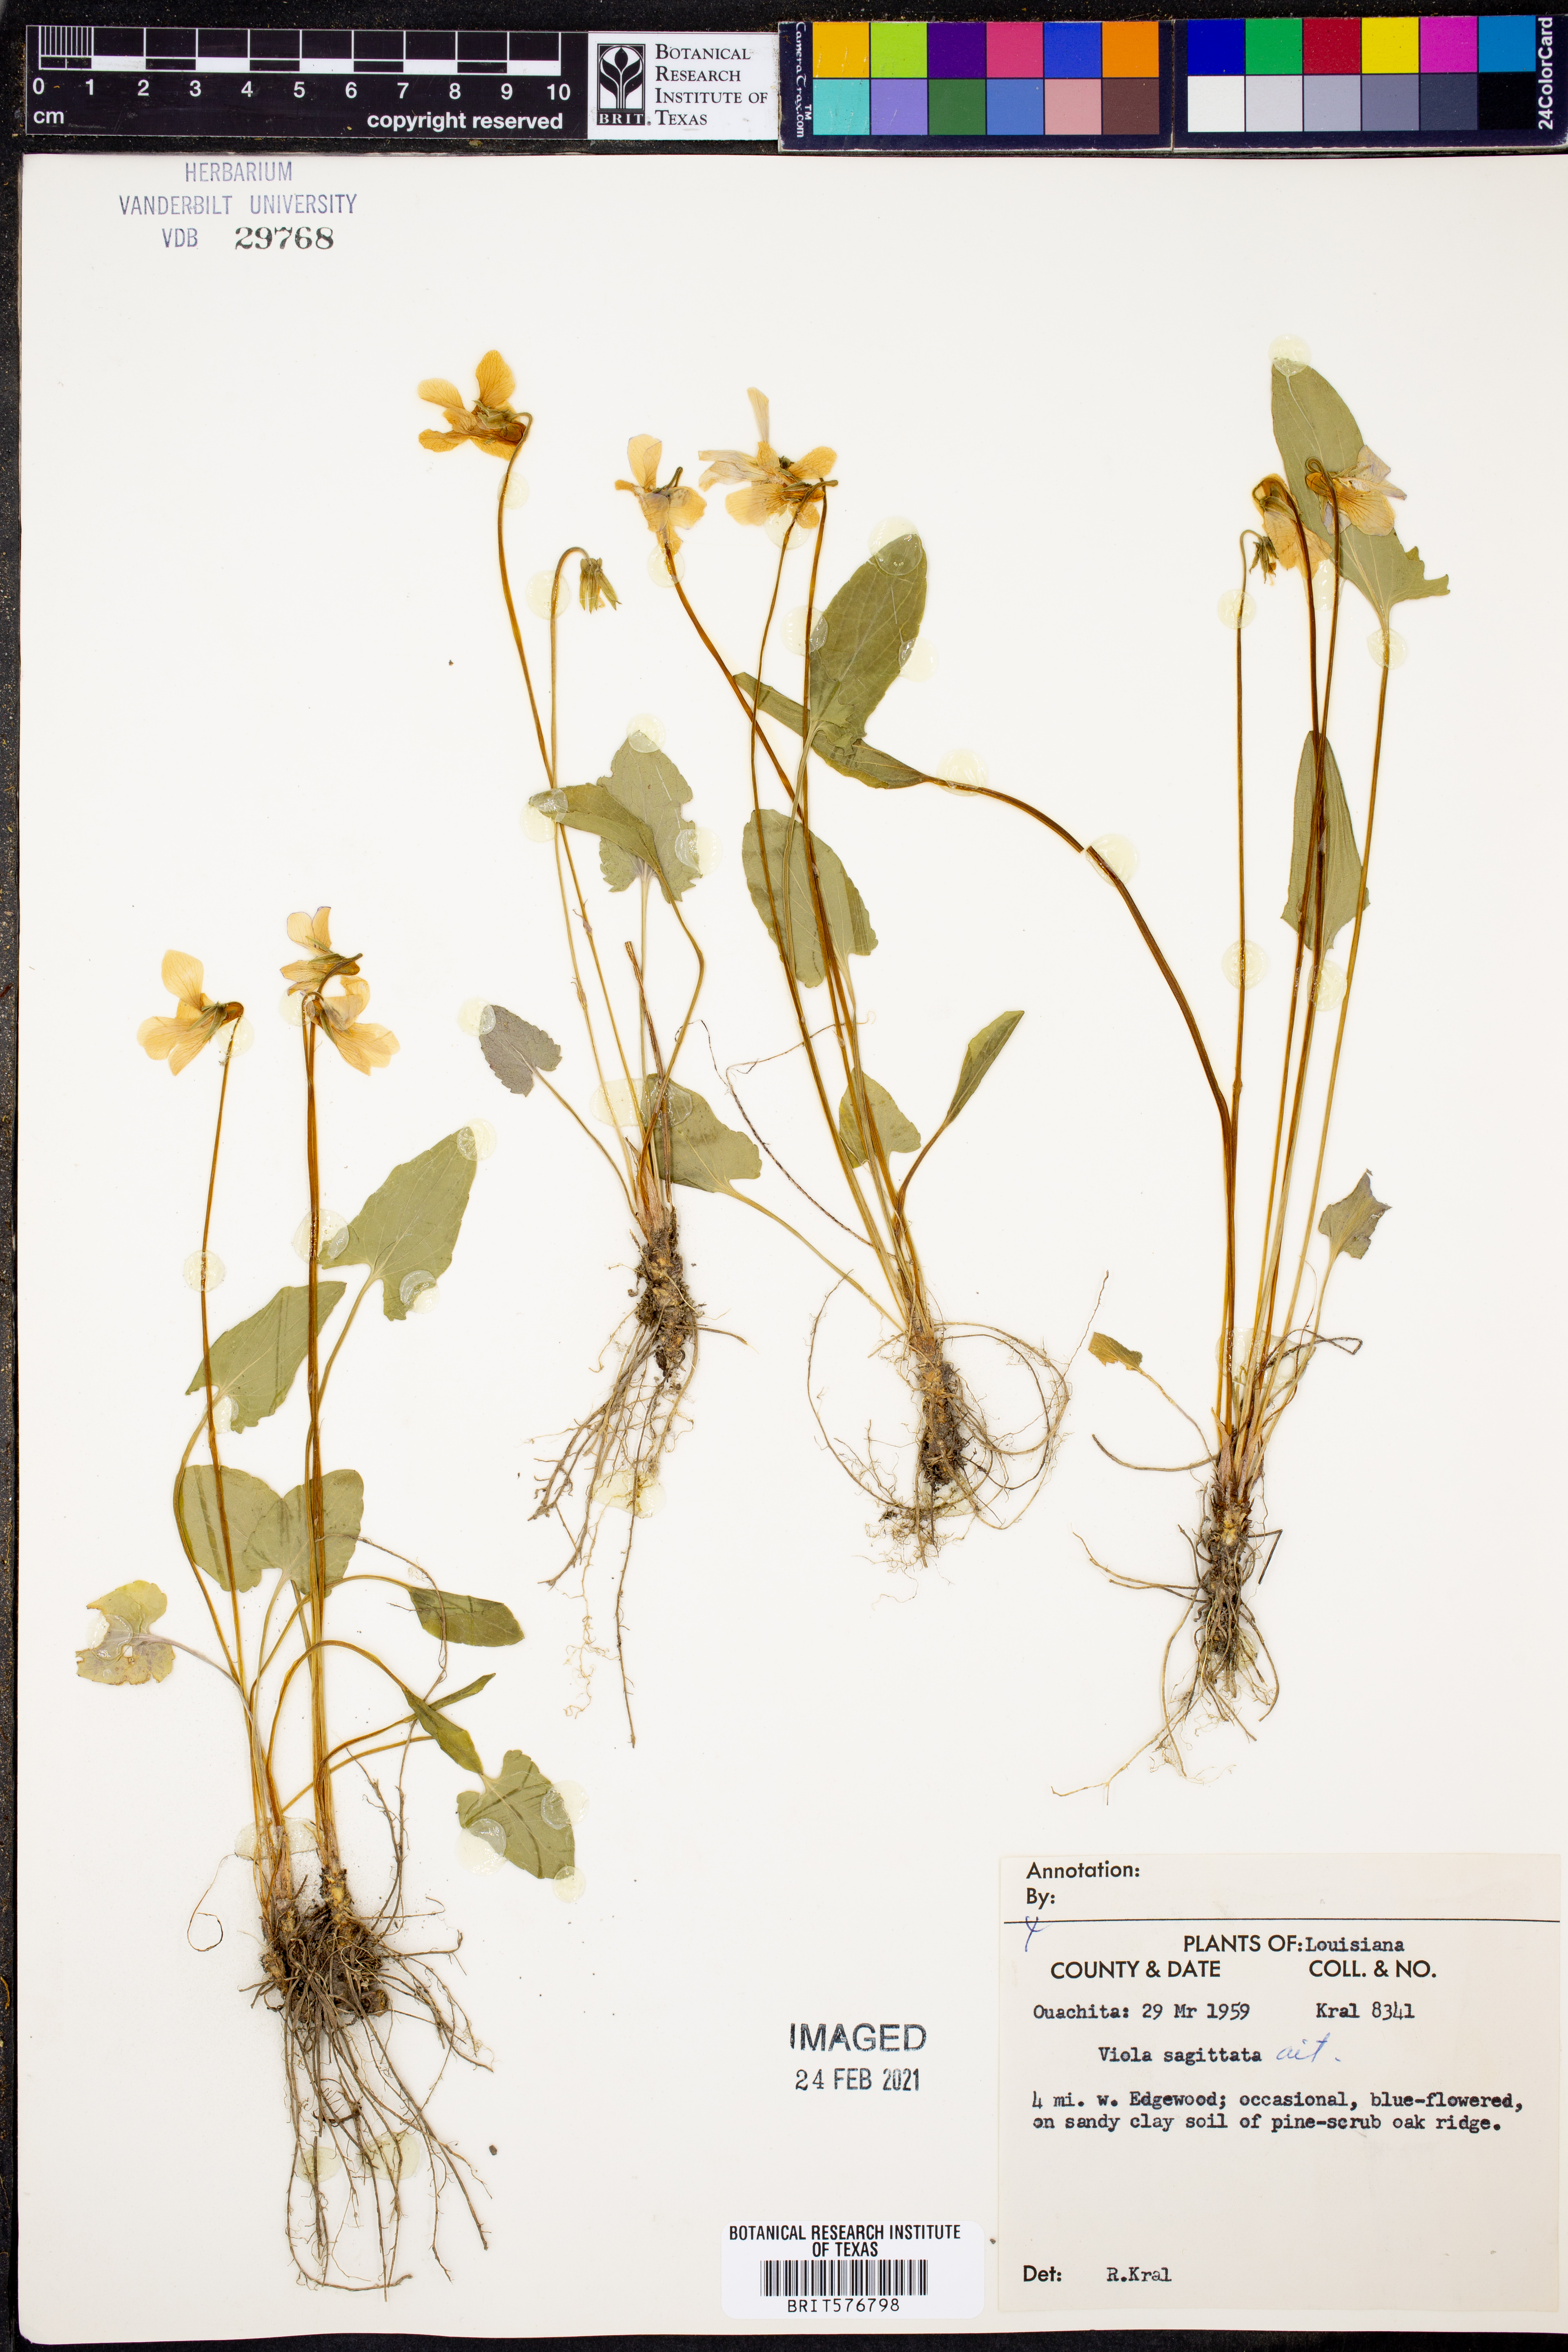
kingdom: Plantae
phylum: Tracheophyta
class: Magnoliopsida
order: Malpighiales
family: Violaceae
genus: Viola
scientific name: Viola sagittata
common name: Arrowhead violet
